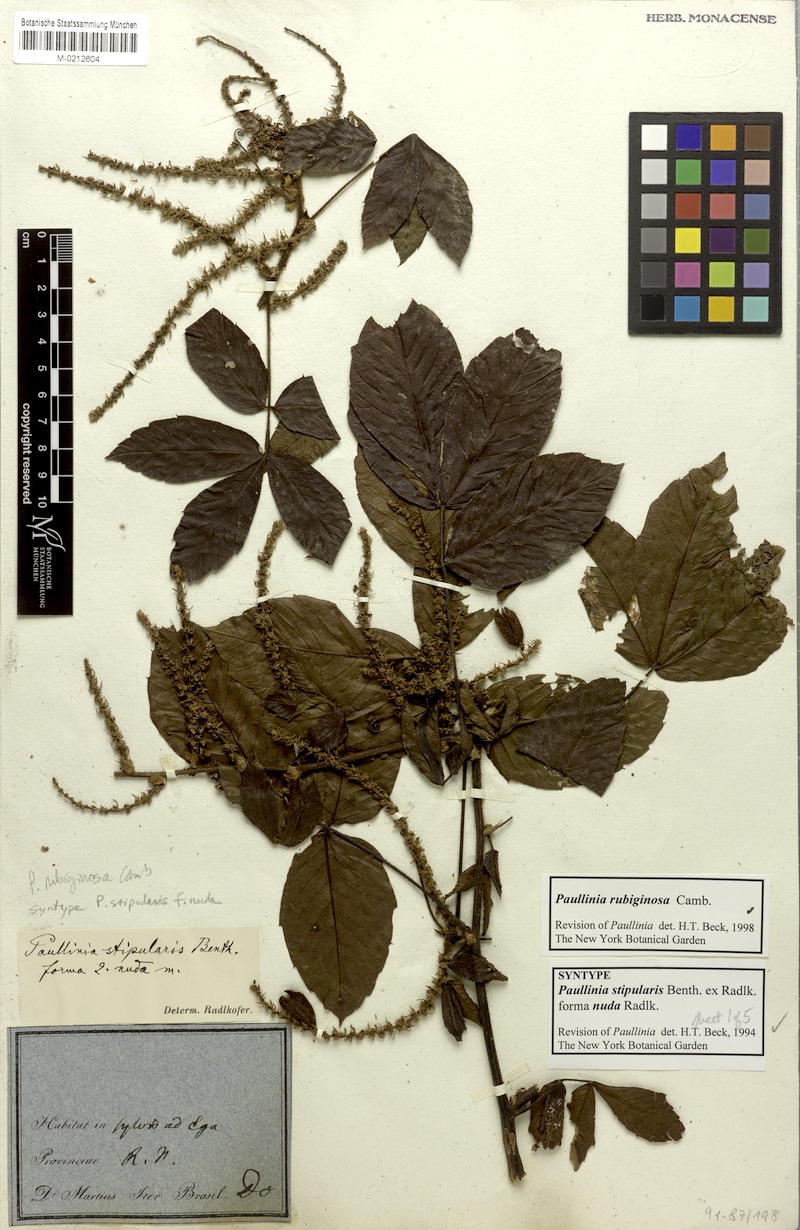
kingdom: Plantae
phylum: Tracheophyta
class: Magnoliopsida
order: Sapindales
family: Sapindaceae
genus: Paullinia
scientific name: Paullinia rubiginosa
